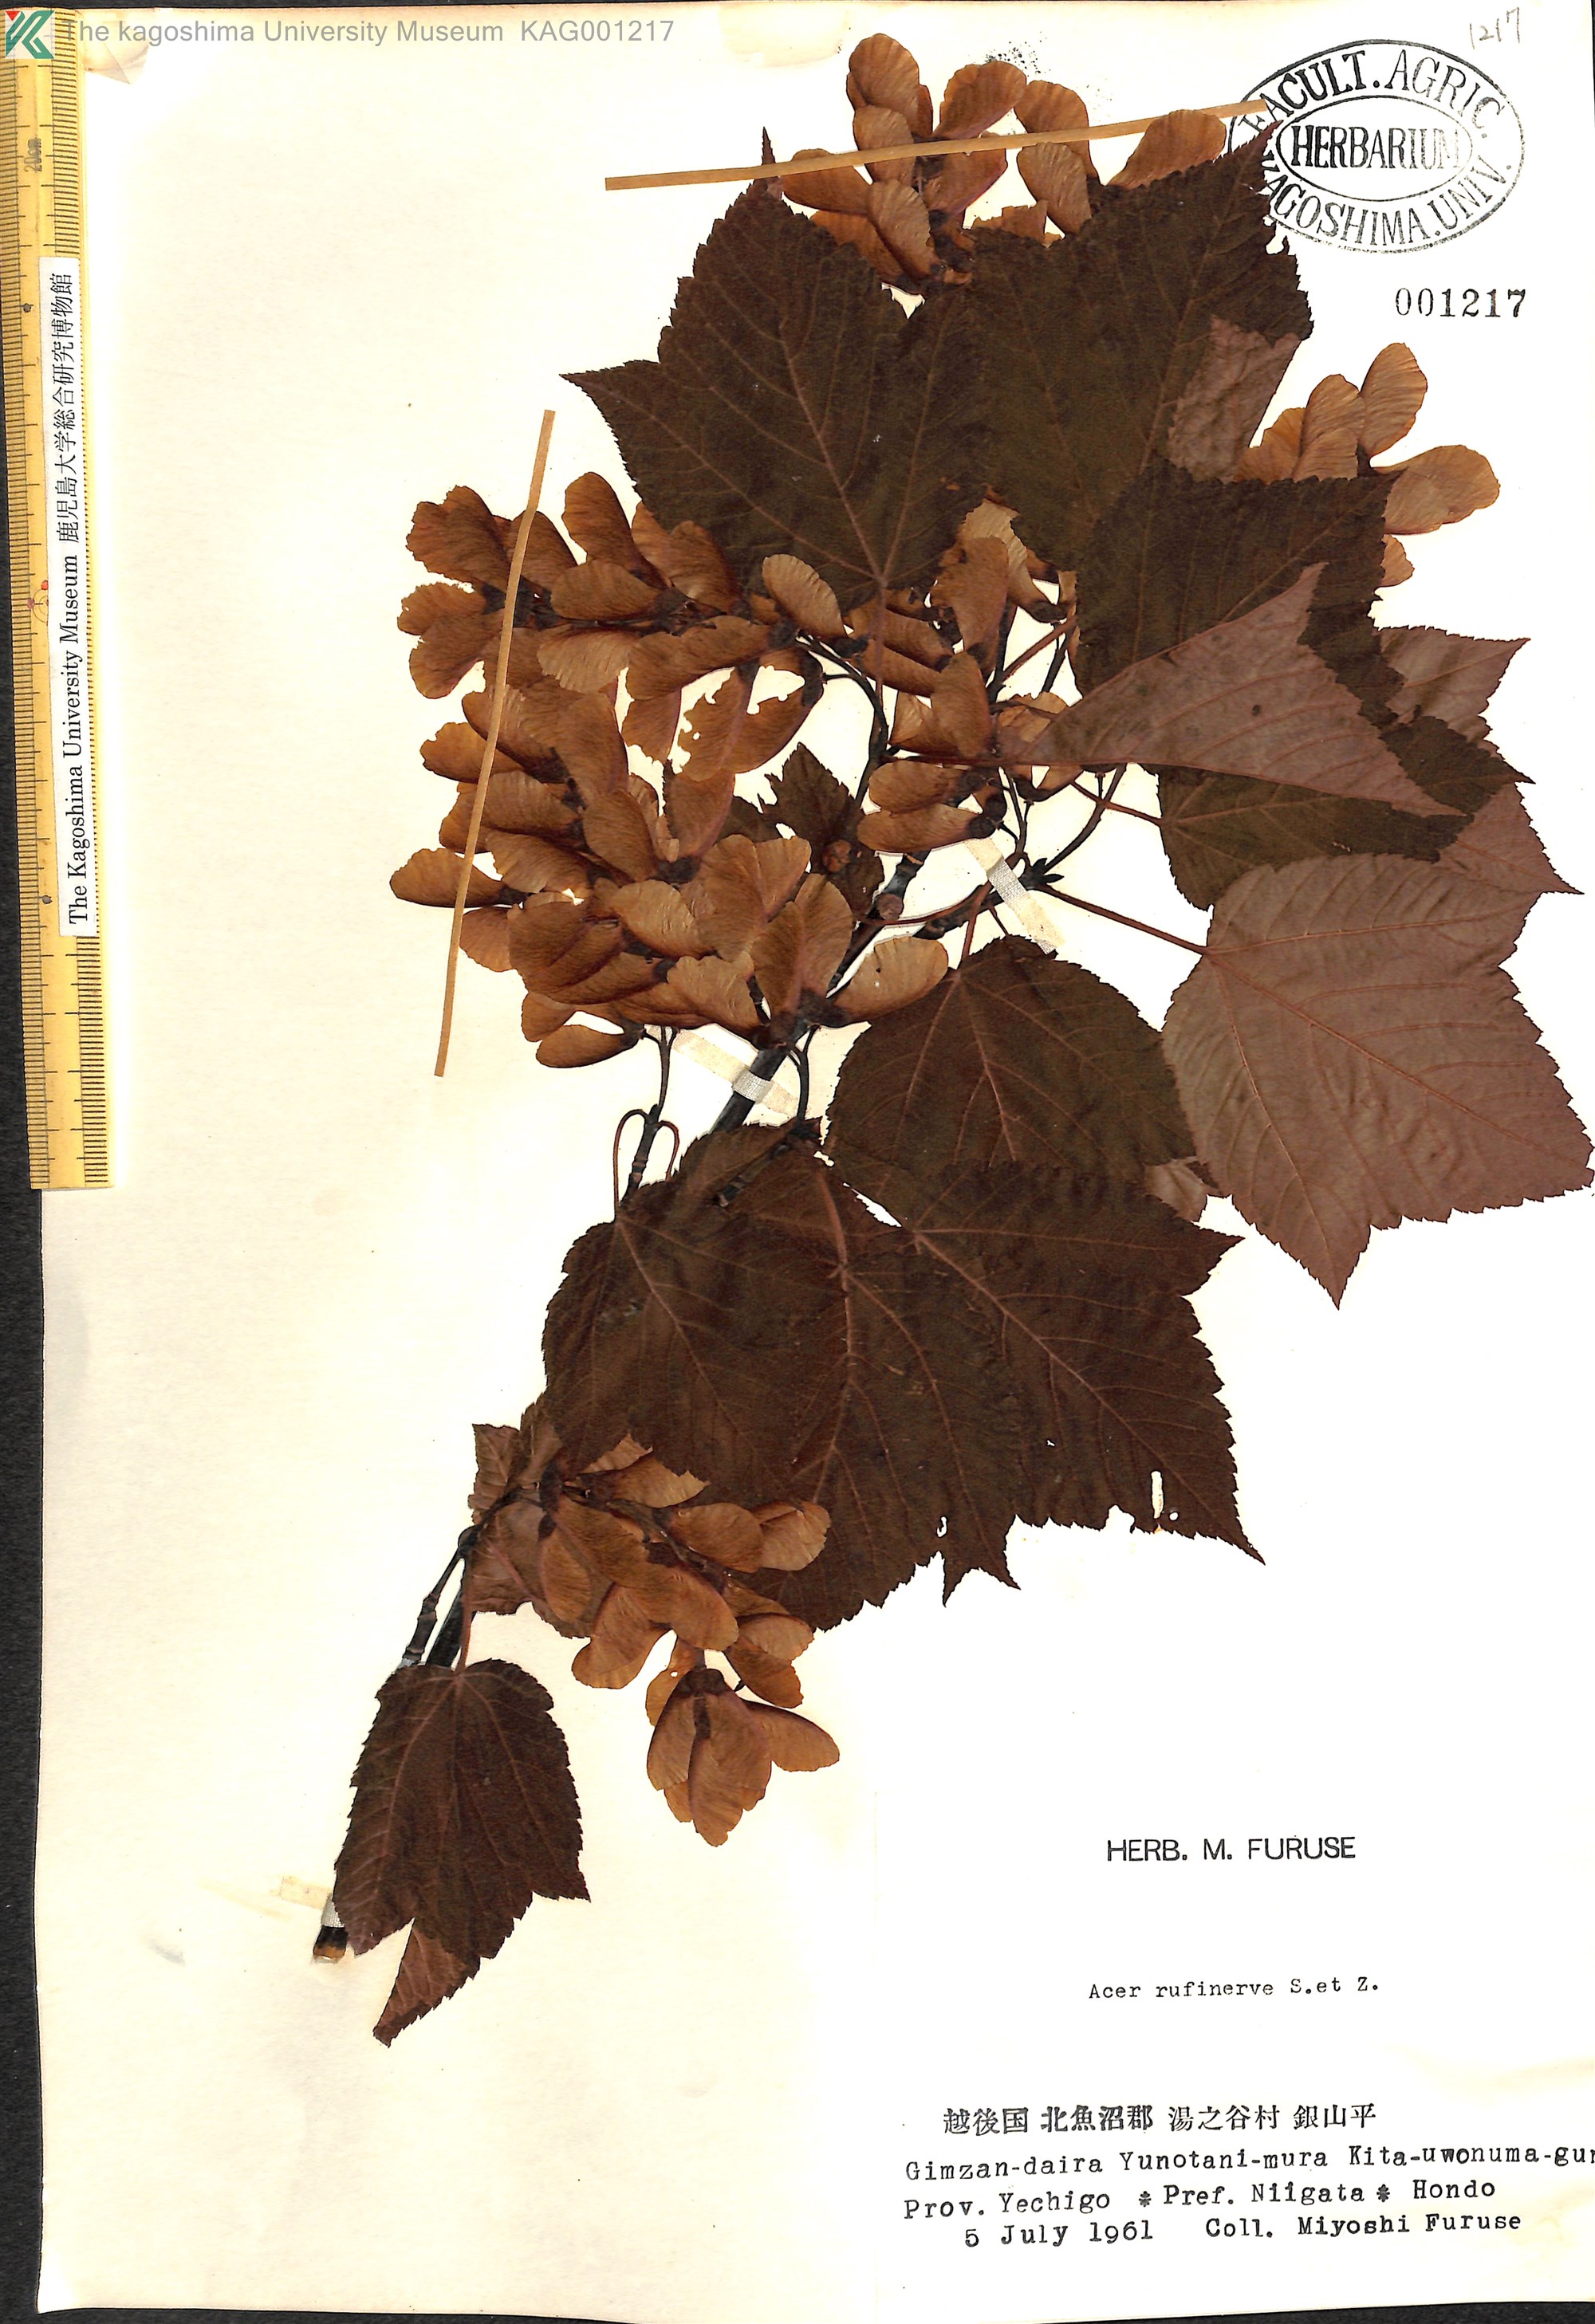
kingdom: Plantae
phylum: Tracheophyta
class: Magnoliopsida
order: Sapindales
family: Sapindaceae
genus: Acer
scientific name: Acer rufinerve
